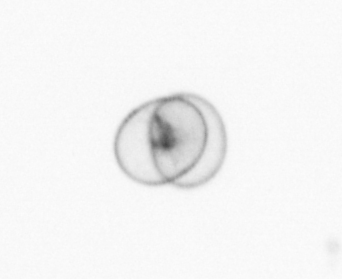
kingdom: Chromista
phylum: Ochrophyta
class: Bacillariophyceae
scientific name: Bacillariophyceae
